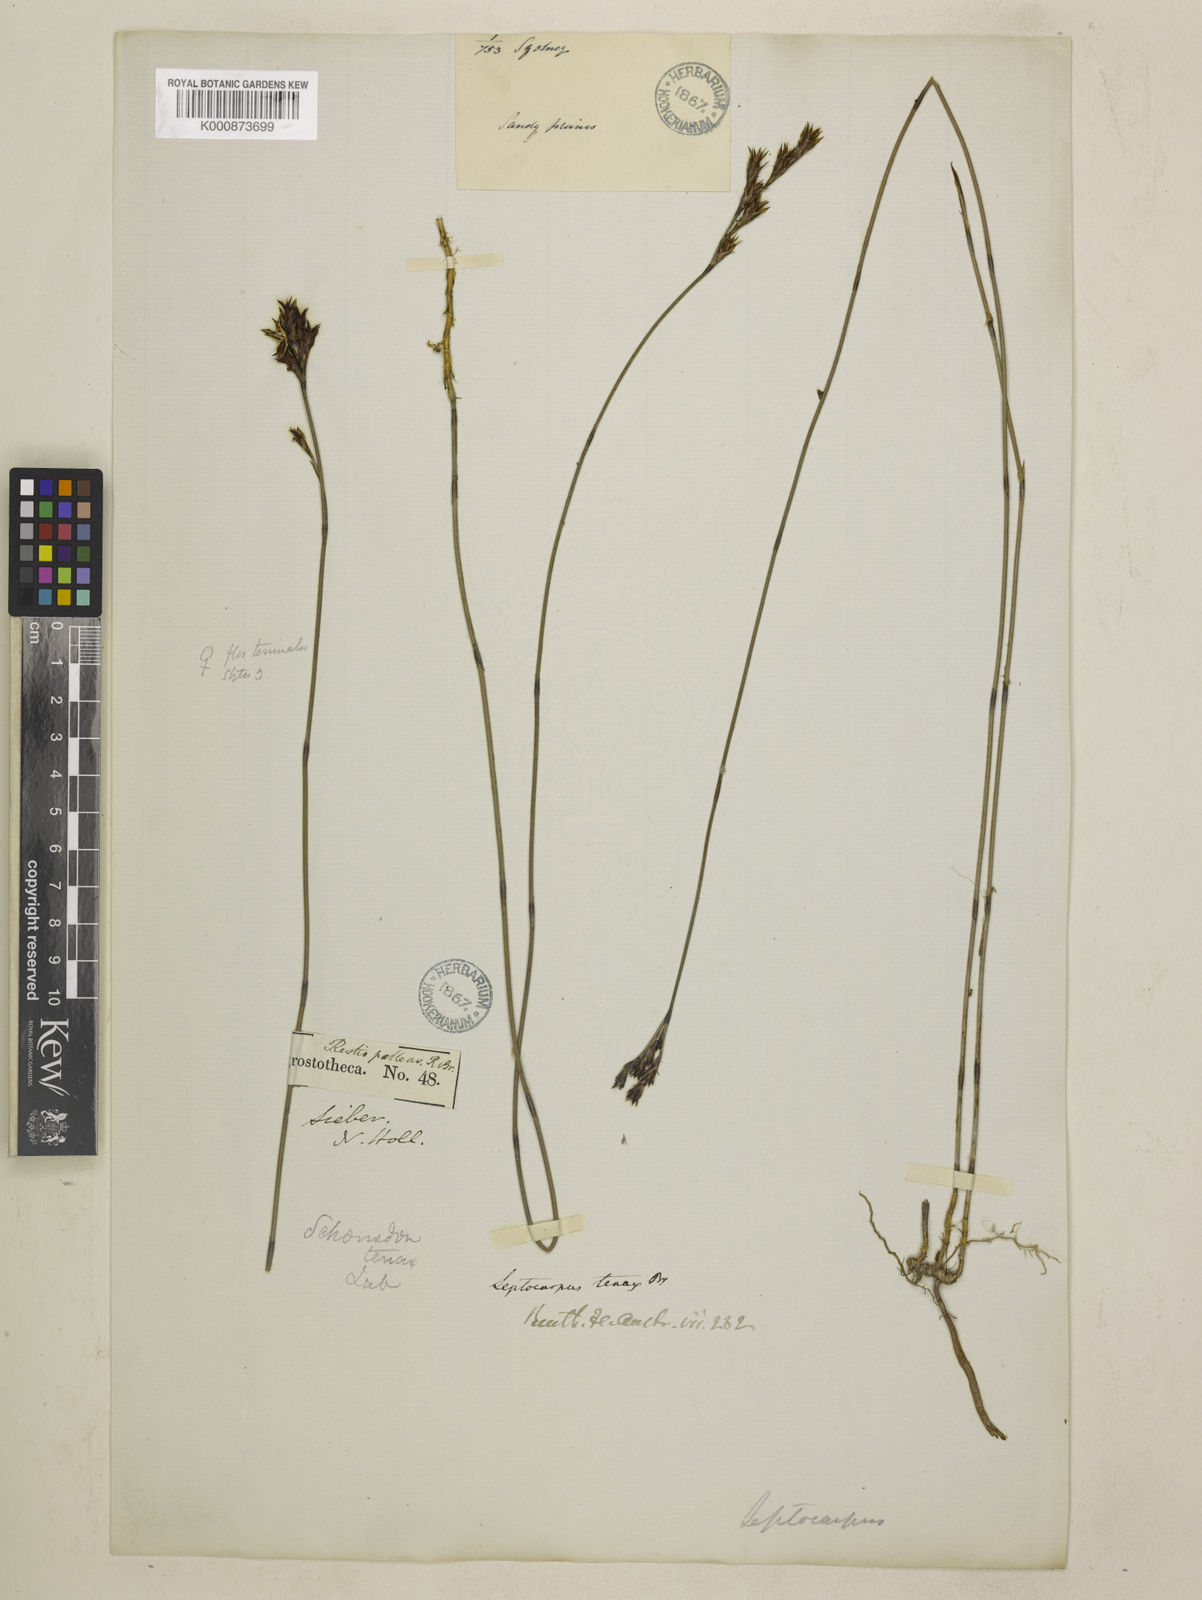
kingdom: Plantae
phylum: Tracheophyta
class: Liliopsida
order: Poales
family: Restionaceae
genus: Leptocarpus
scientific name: Leptocarpus tenax
